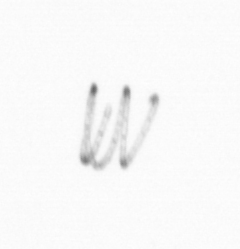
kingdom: Chromista
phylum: Ochrophyta
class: Bacillariophyceae
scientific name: Bacillariophyceae
